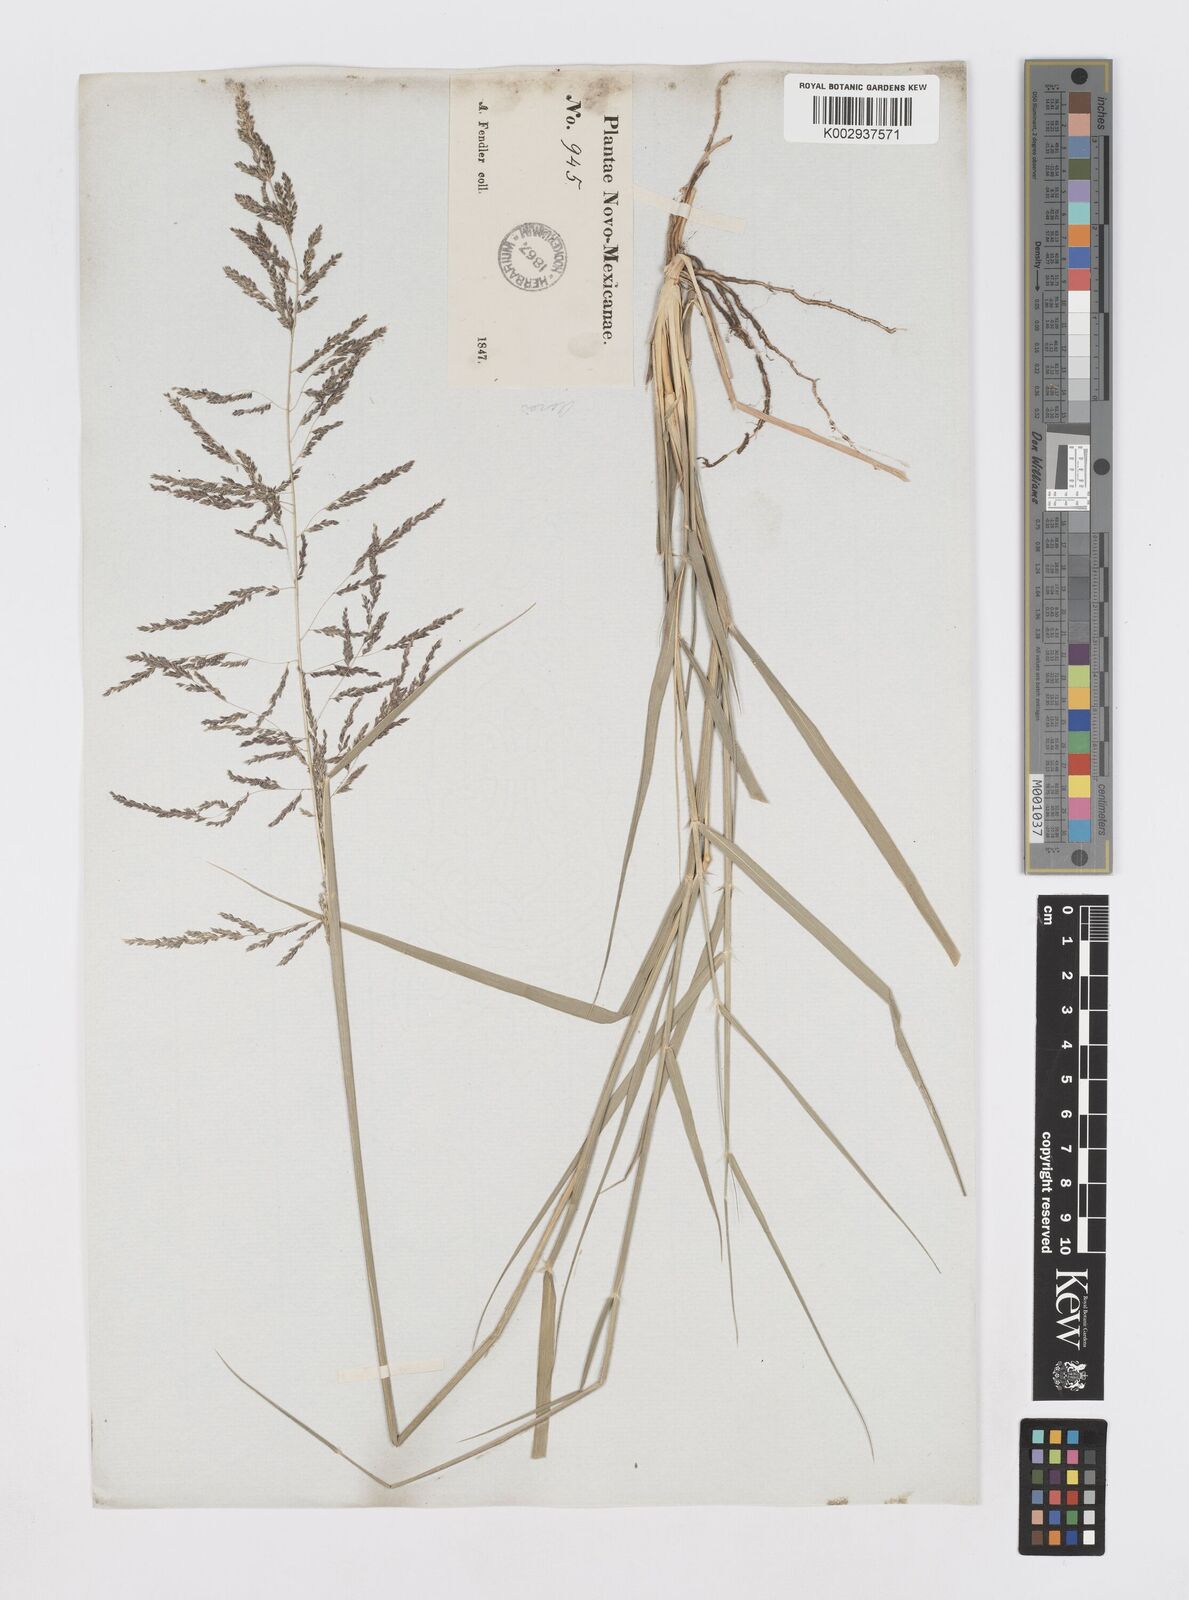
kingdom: Plantae
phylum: Tracheophyta
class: Liliopsida
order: Poales
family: Poaceae
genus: Sporobolus
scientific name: Sporobolus
